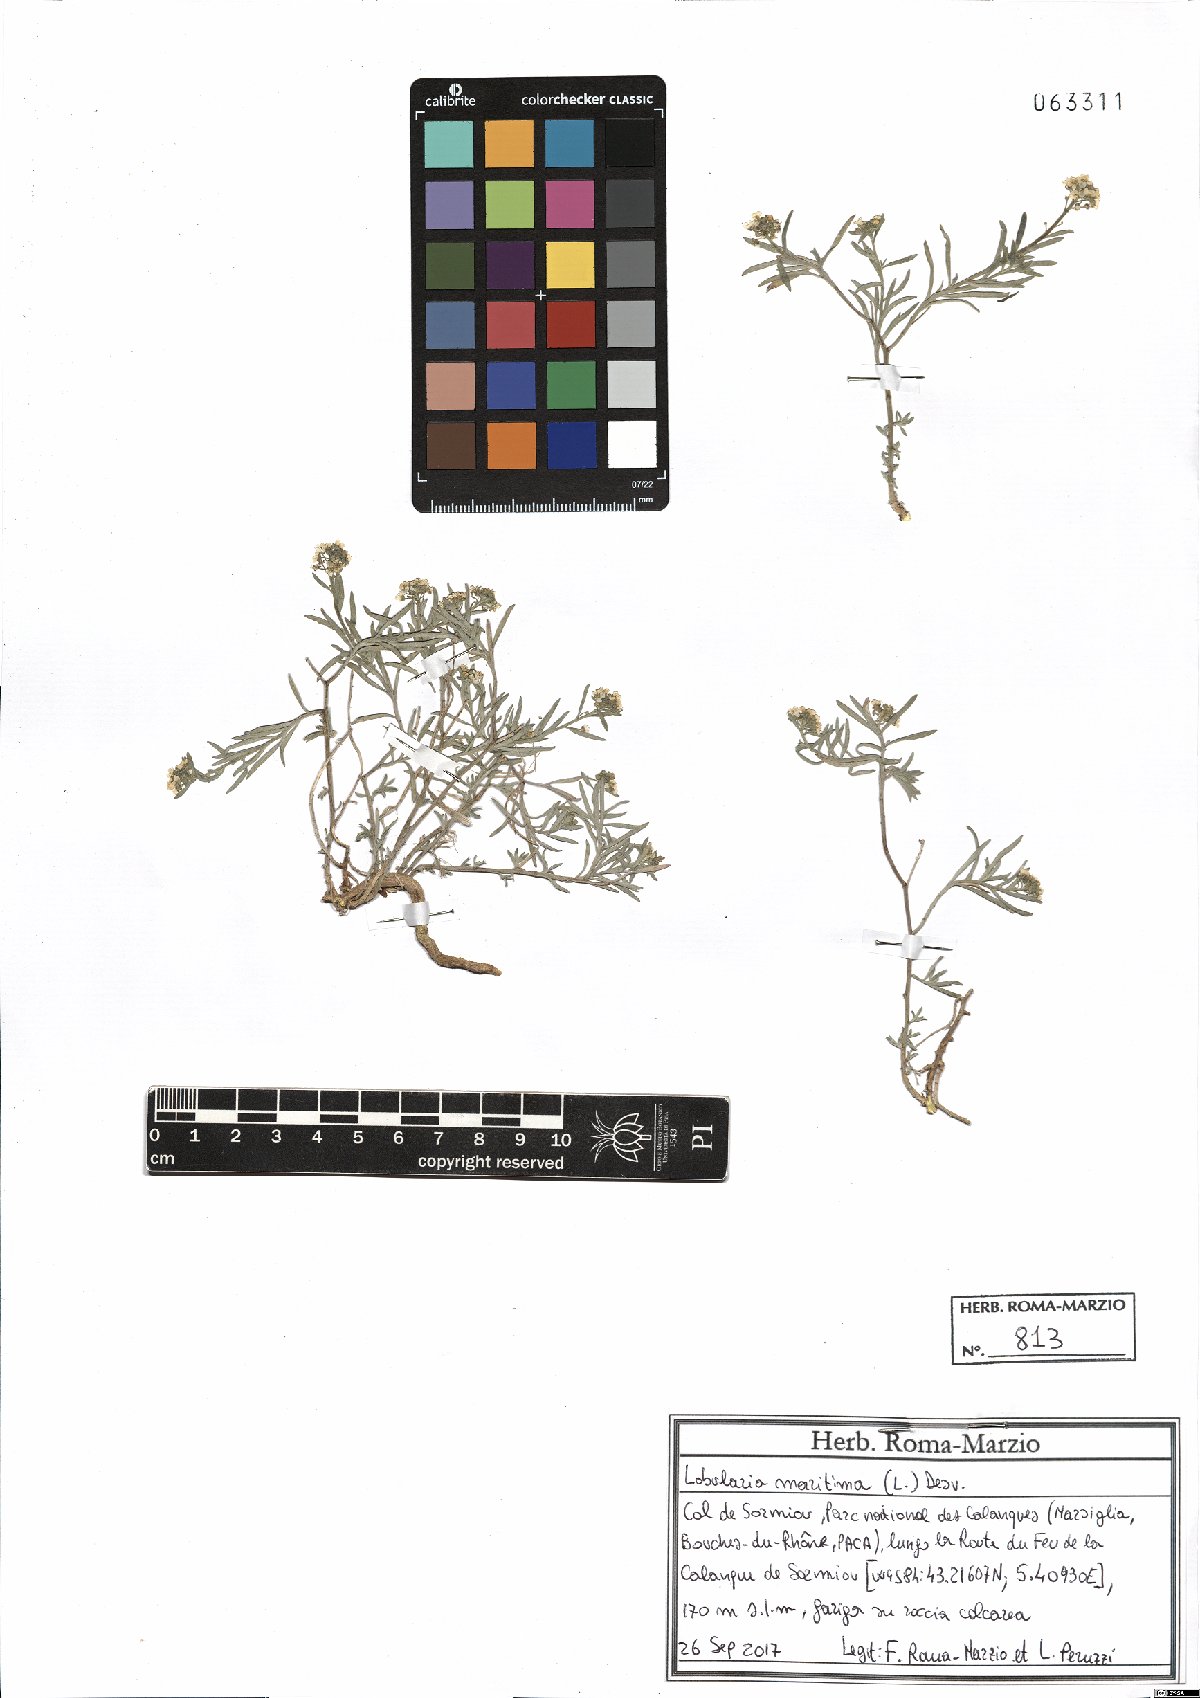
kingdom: Plantae
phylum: Tracheophyta
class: Magnoliopsida
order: Brassicales
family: Brassicaceae
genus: Lobularia
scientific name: Lobularia maritima
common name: Sweet alison
